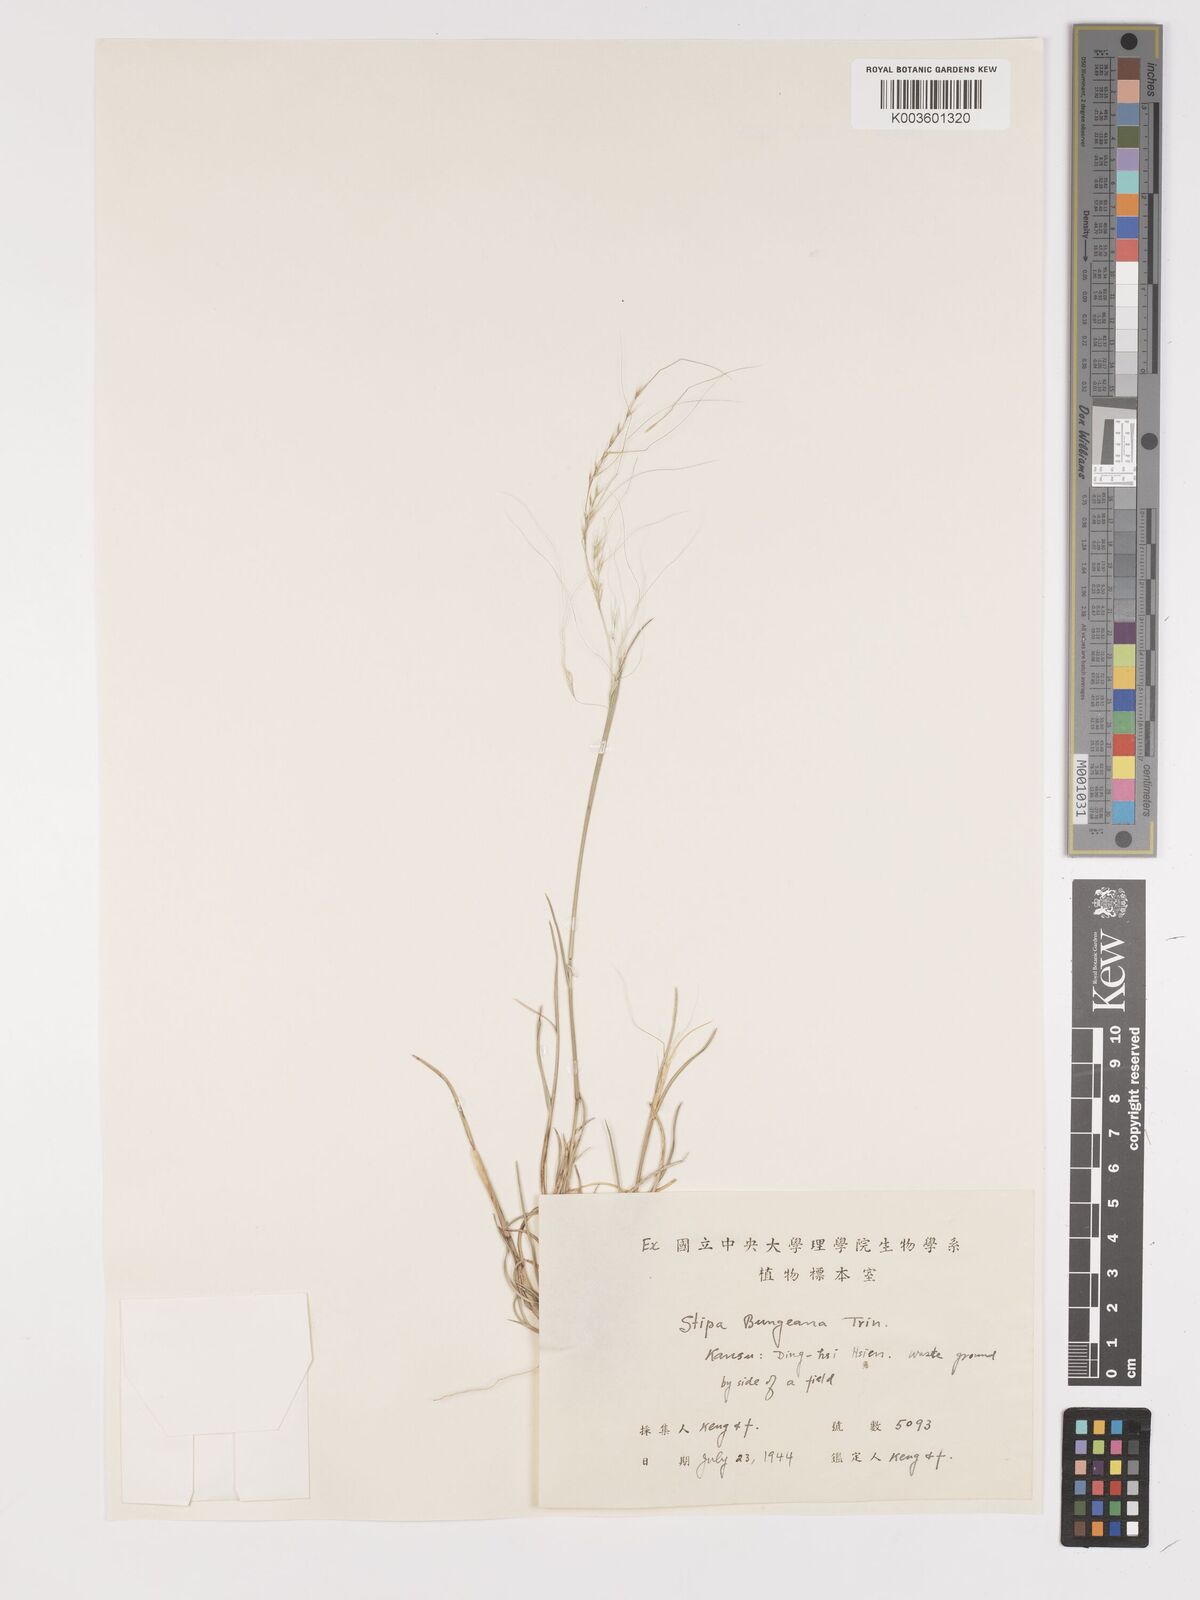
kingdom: Plantae
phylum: Tracheophyta
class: Liliopsida
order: Poales
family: Poaceae
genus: Stipa
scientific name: Stipa bungeana
